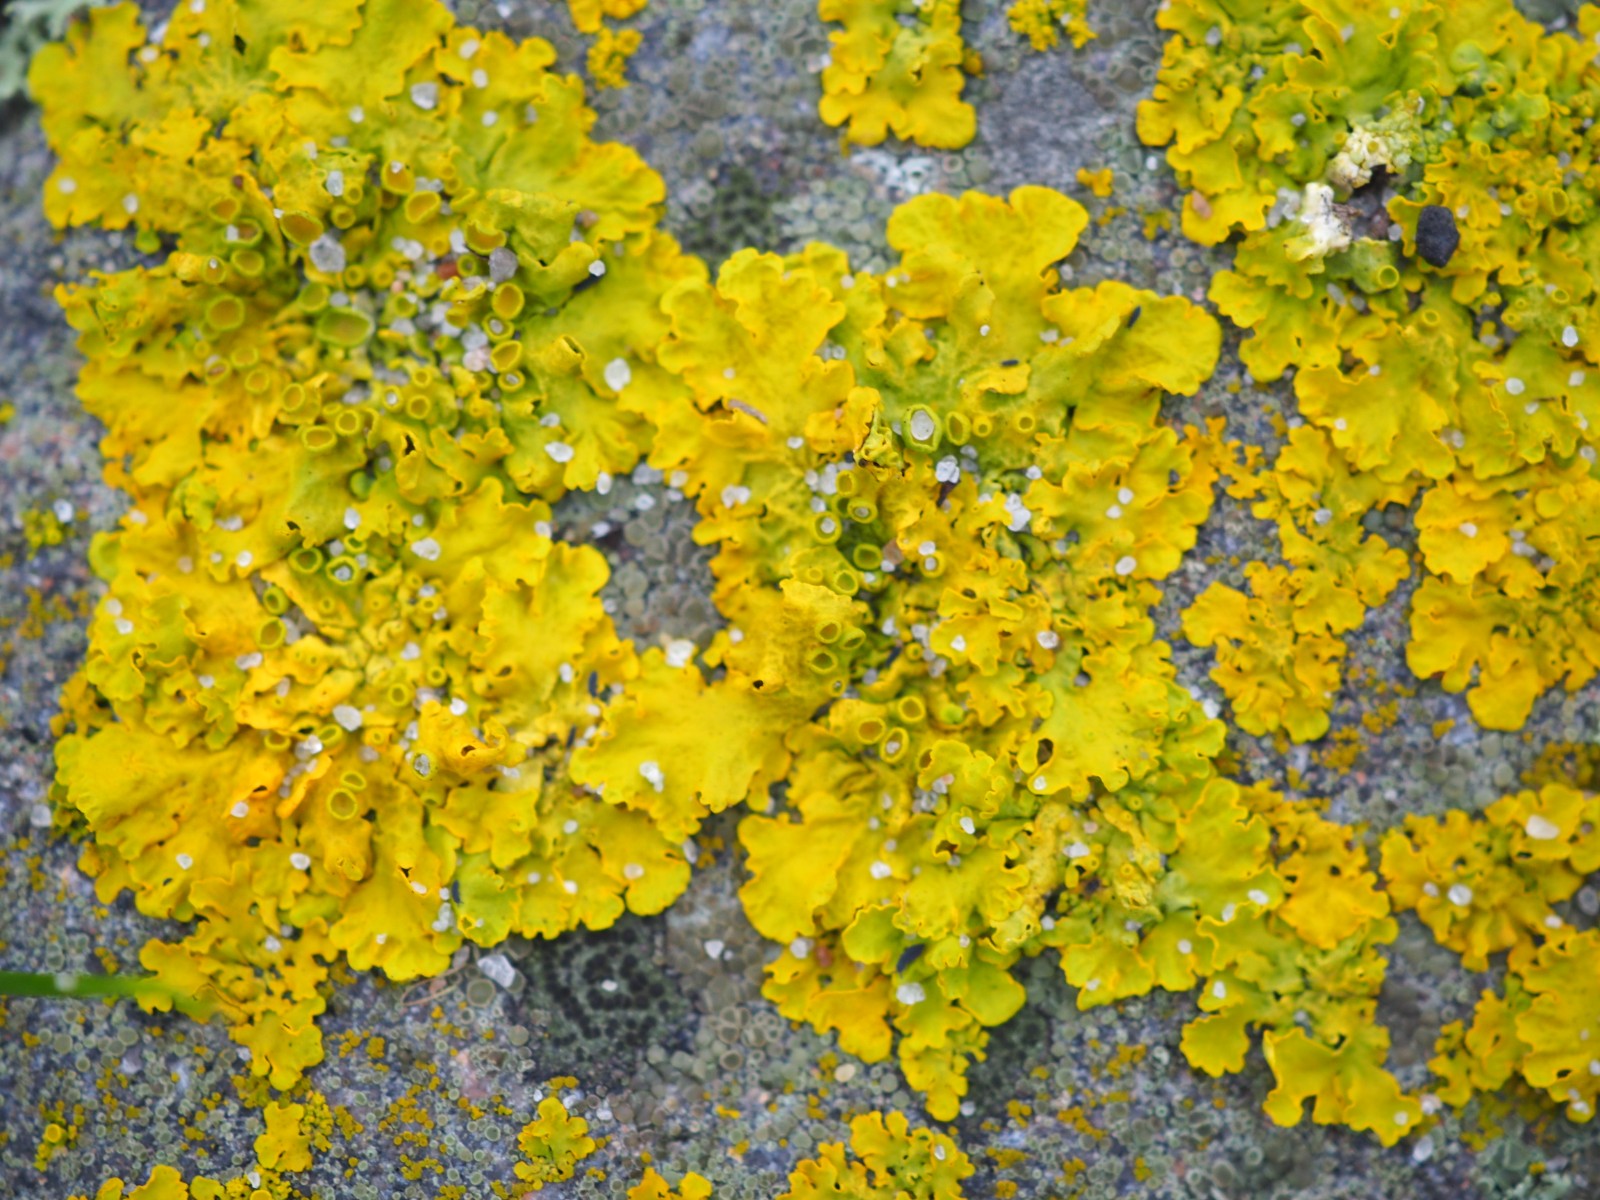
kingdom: Fungi
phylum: Ascomycota
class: Lecanoromycetes
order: Teloschistales
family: Teloschistaceae
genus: Xanthoria
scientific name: Xanthoria parietina
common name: almindelig væggelav
